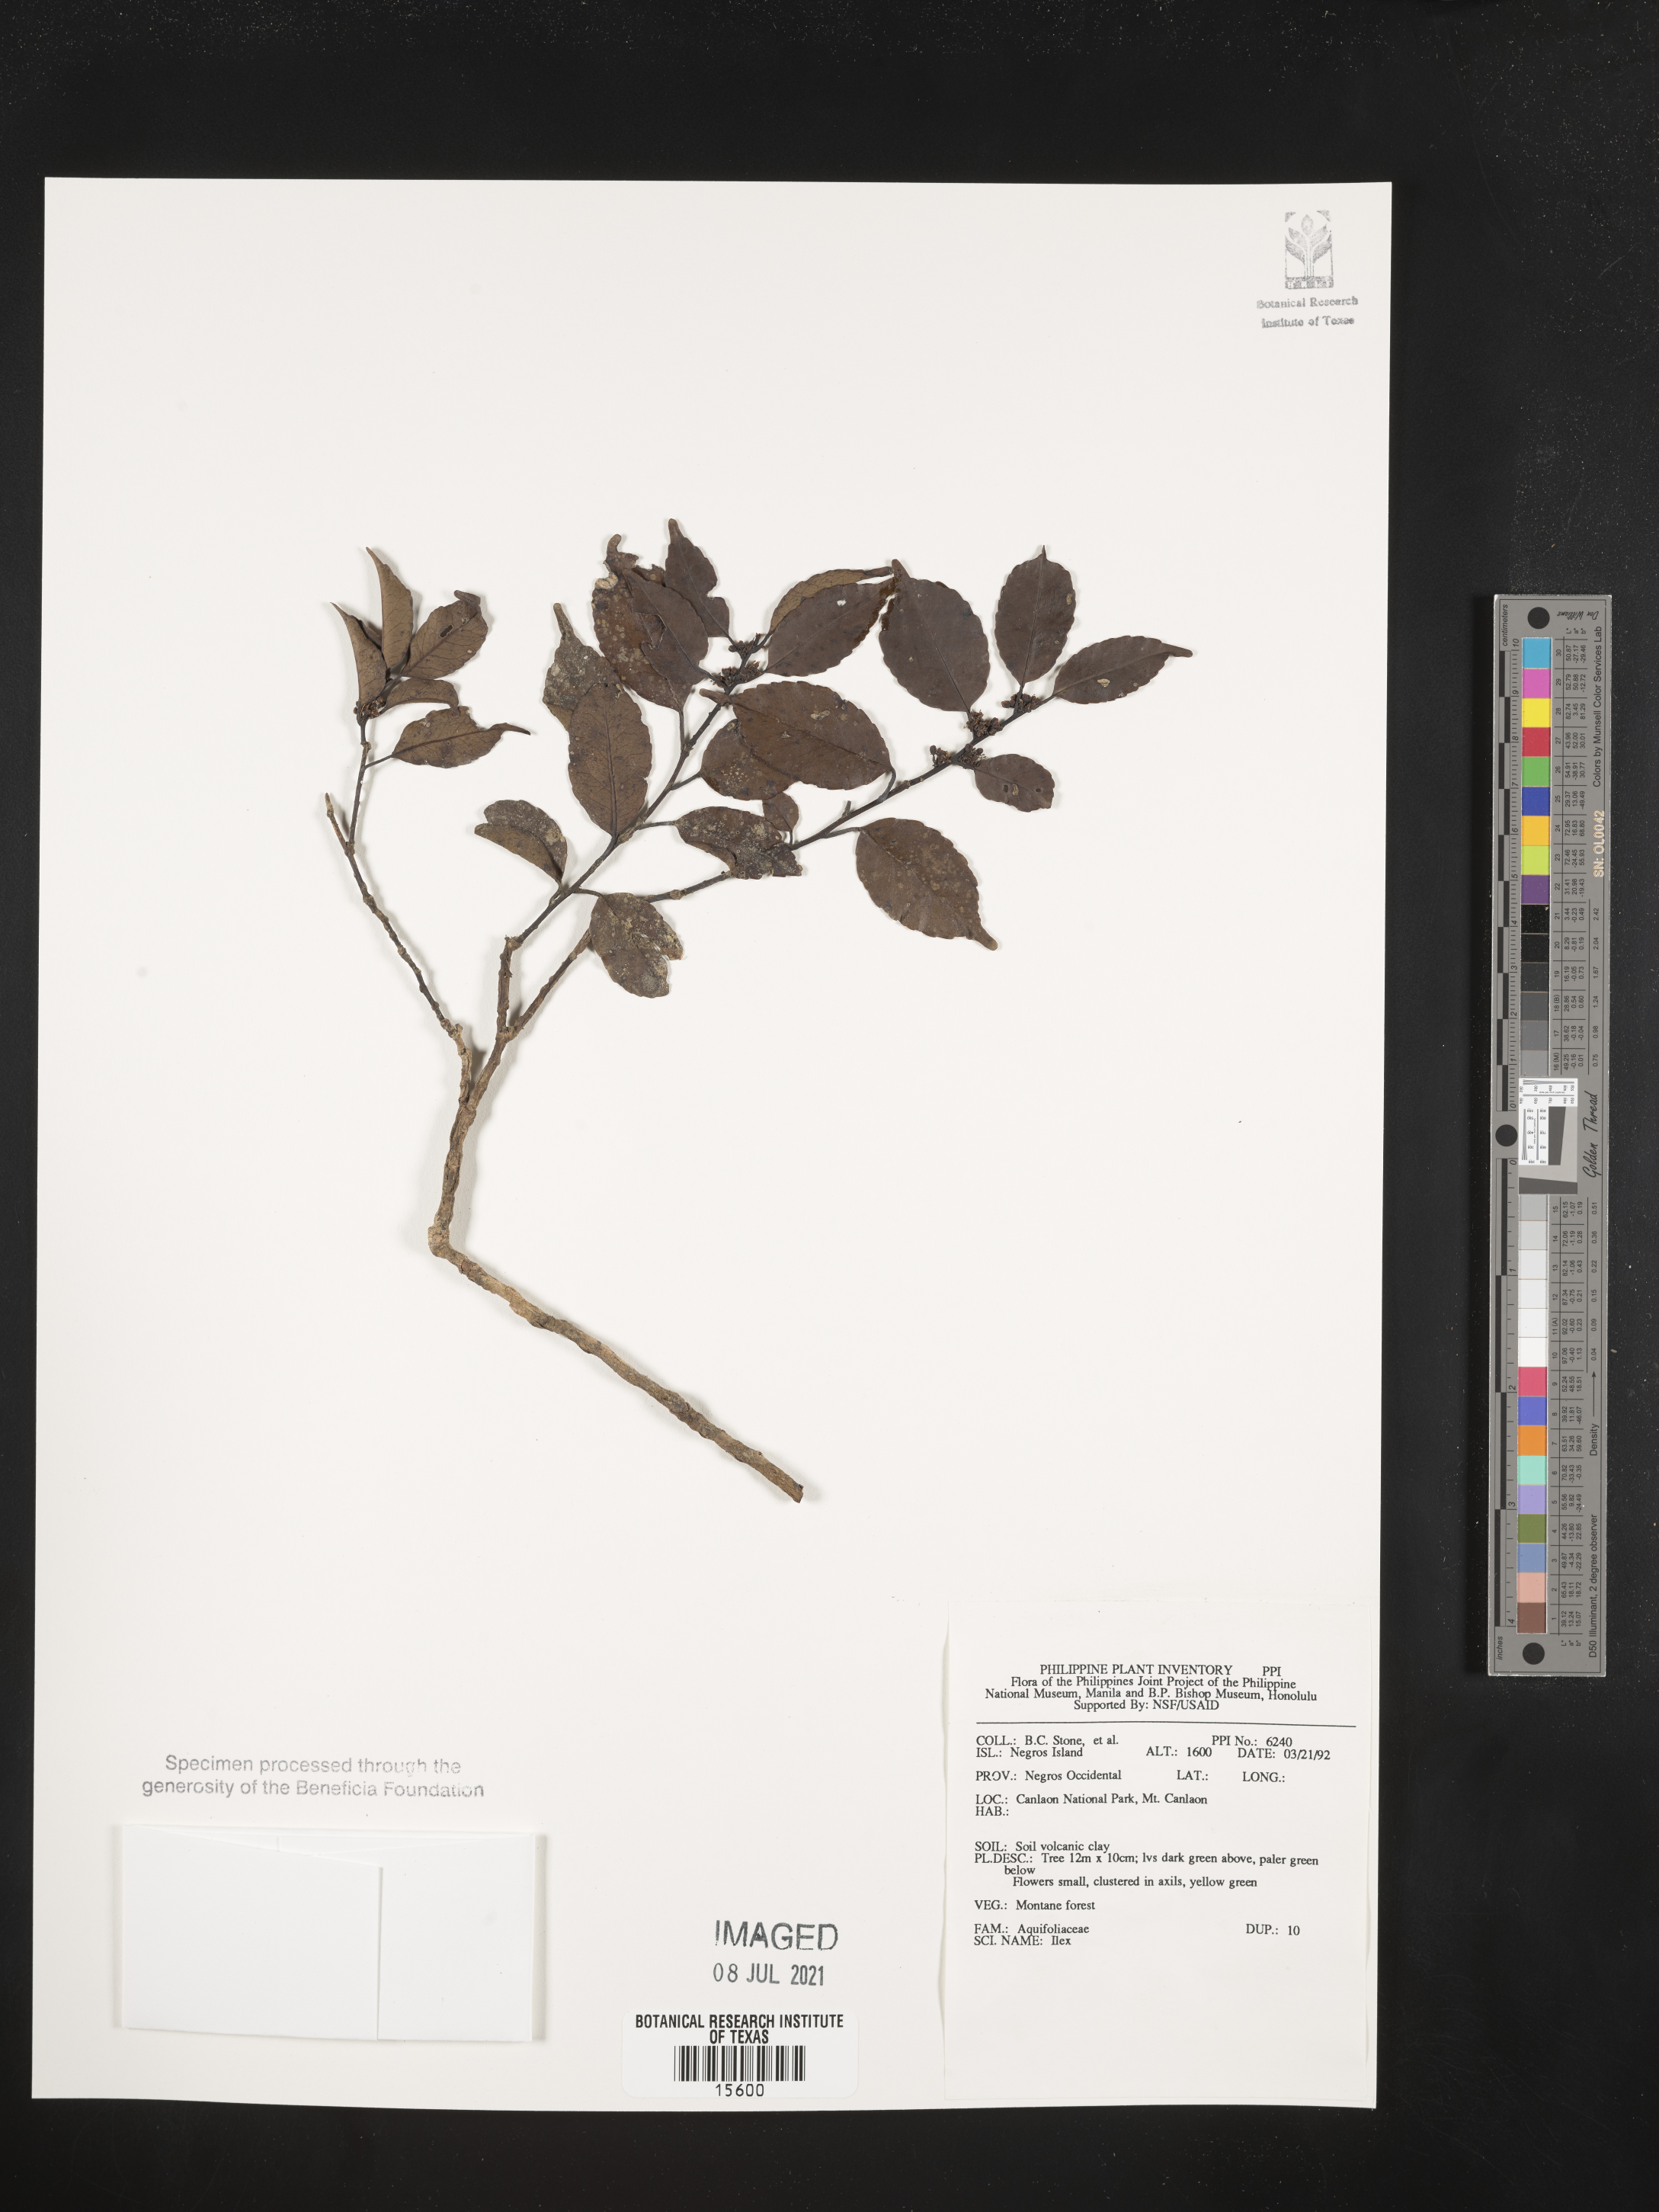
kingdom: Plantae
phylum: Tracheophyta
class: Magnoliopsida
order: Aquifoliales
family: Aquifoliaceae
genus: Ilex
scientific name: Ilex
